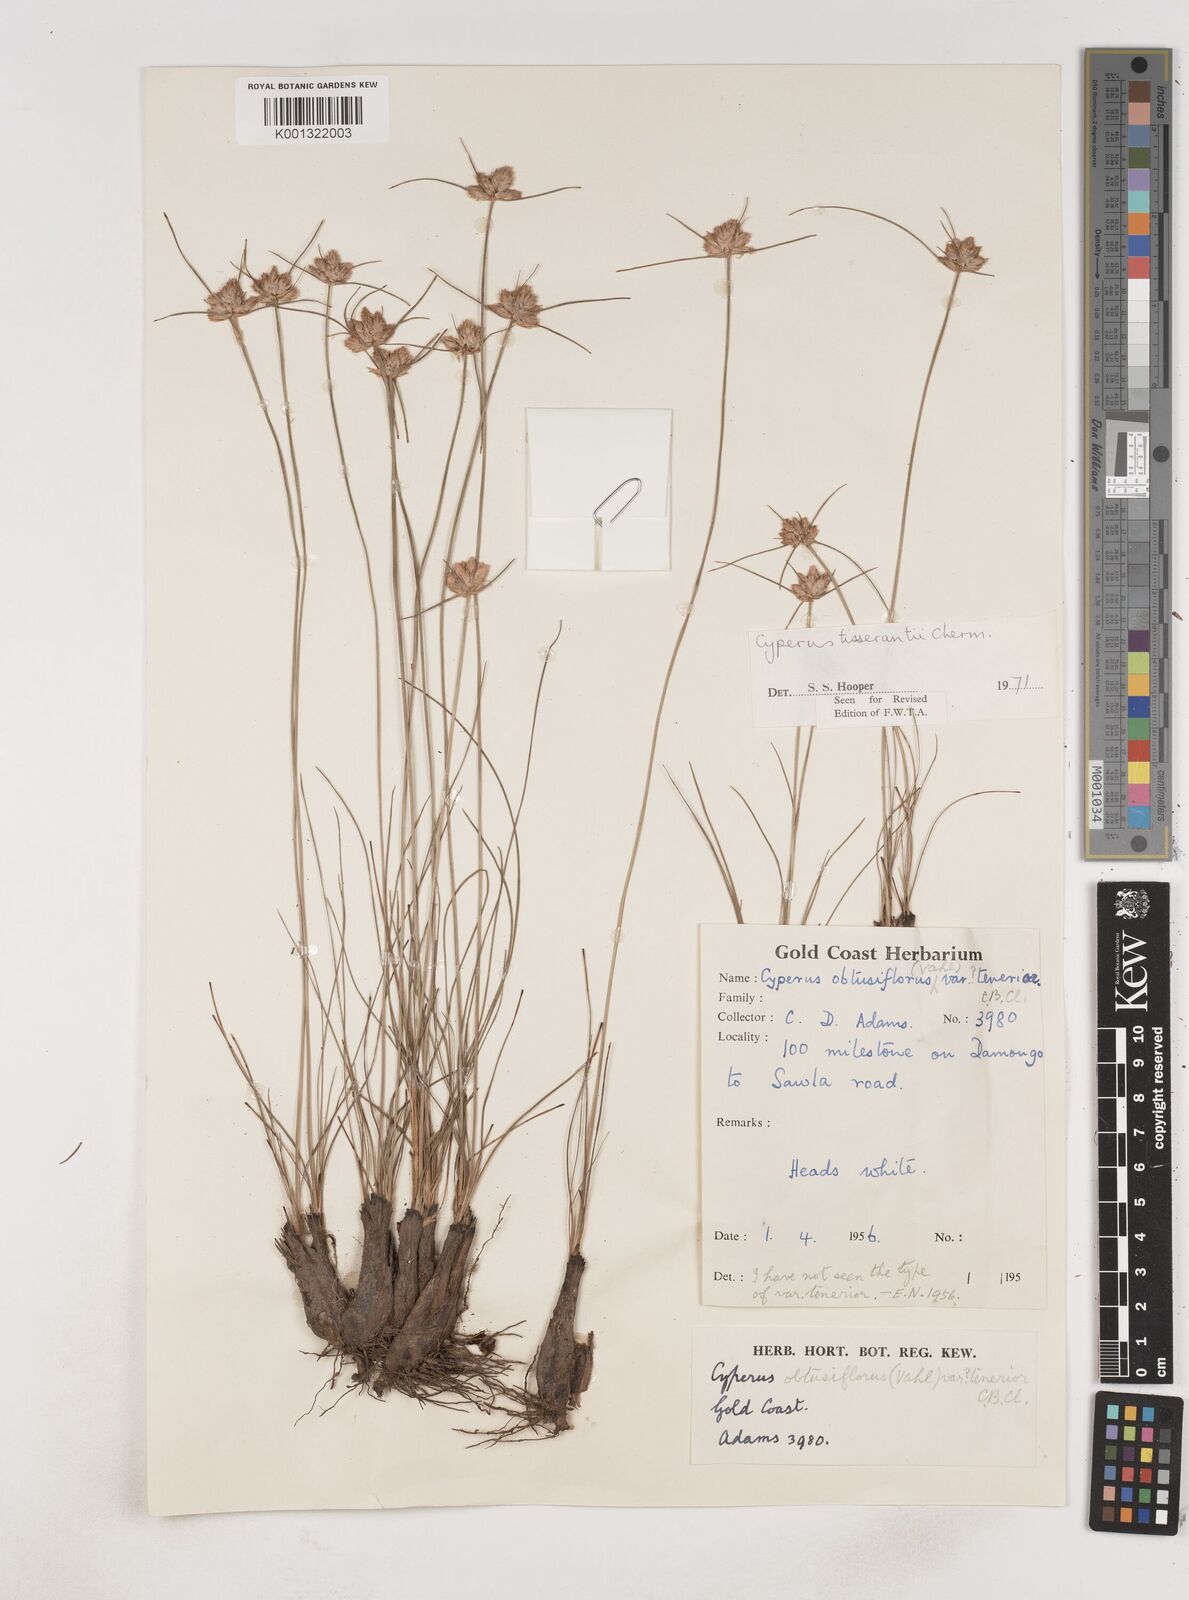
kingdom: Plantae
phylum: Tracheophyta
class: Liliopsida
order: Poales
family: Cyperaceae
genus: Cyperus
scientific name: Cyperus niveus
